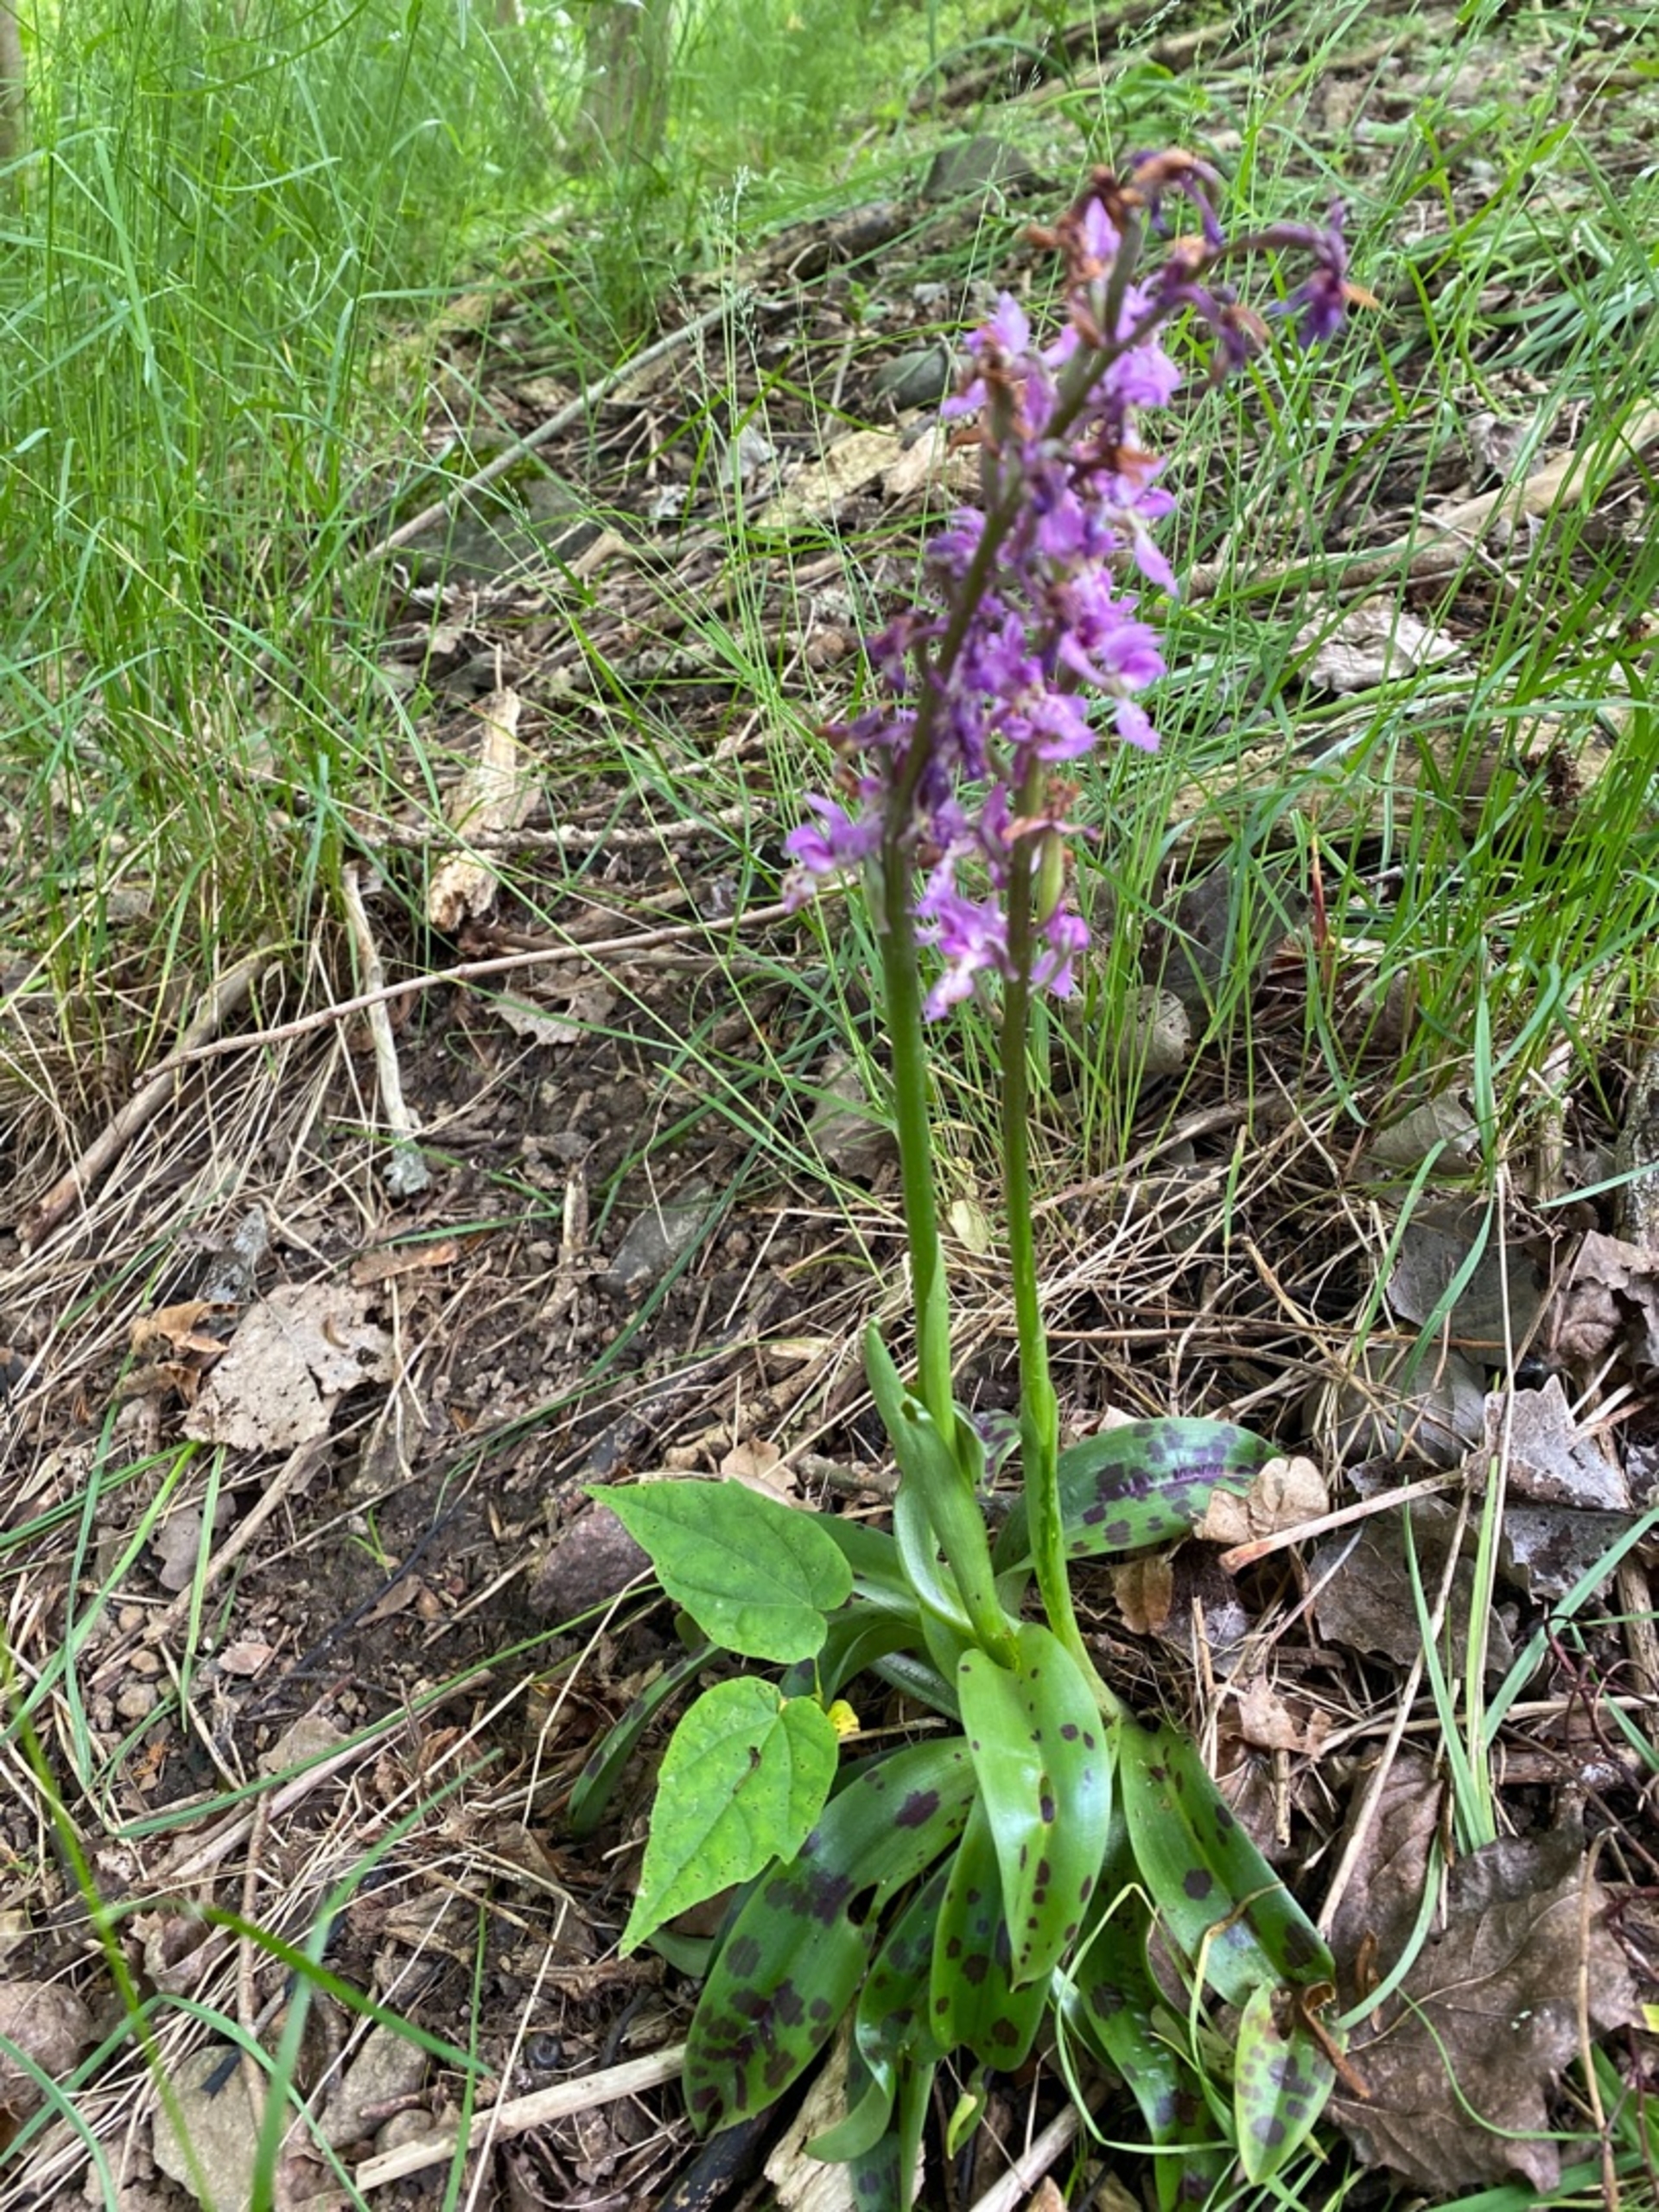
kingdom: Plantae
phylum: Tracheophyta
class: Liliopsida
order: Asparagales
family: Orchidaceae
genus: Orchis
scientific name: Orchis mascula
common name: Tyndakset gøgeurt
